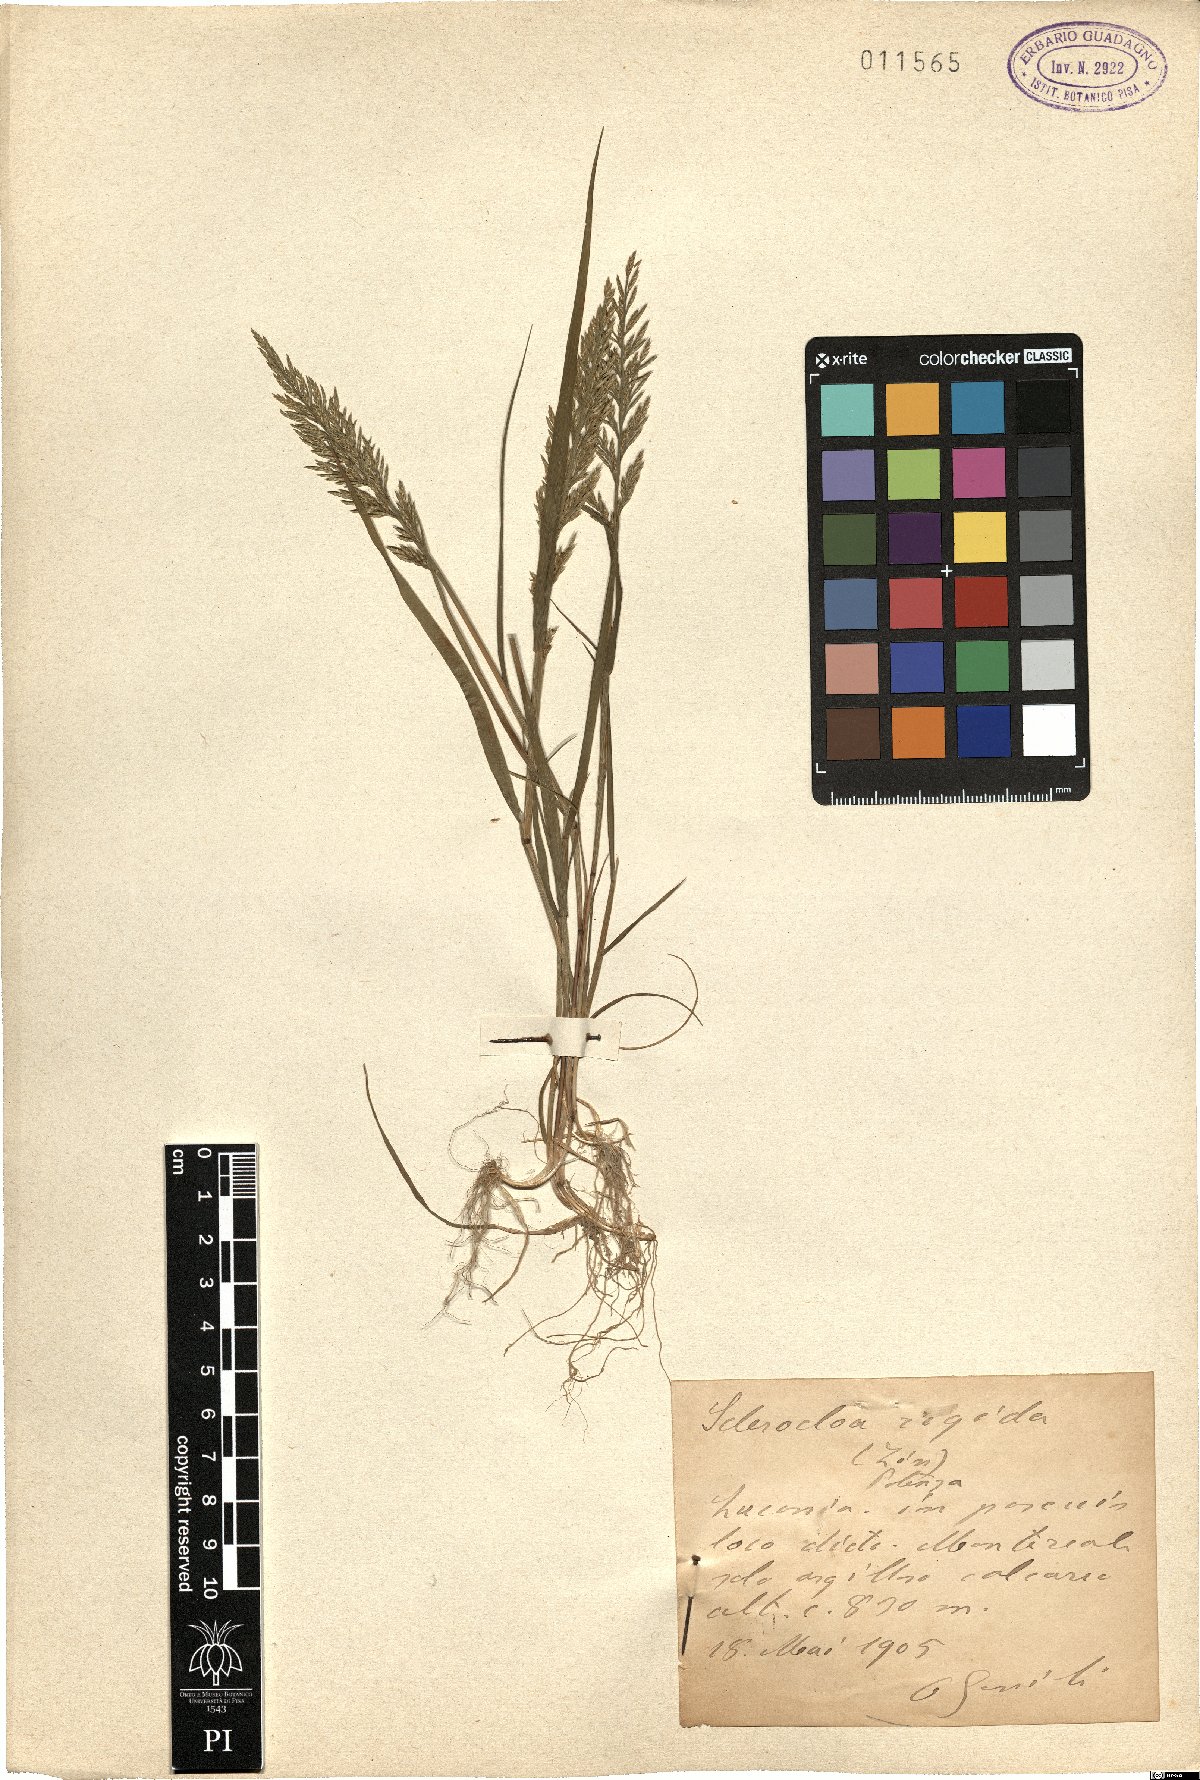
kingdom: Plantae
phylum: Tracheophyta
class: Liliopsida
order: Poales
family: Poaceae
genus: Catapodium
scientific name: Catapodium rigidum
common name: Fern-grass
